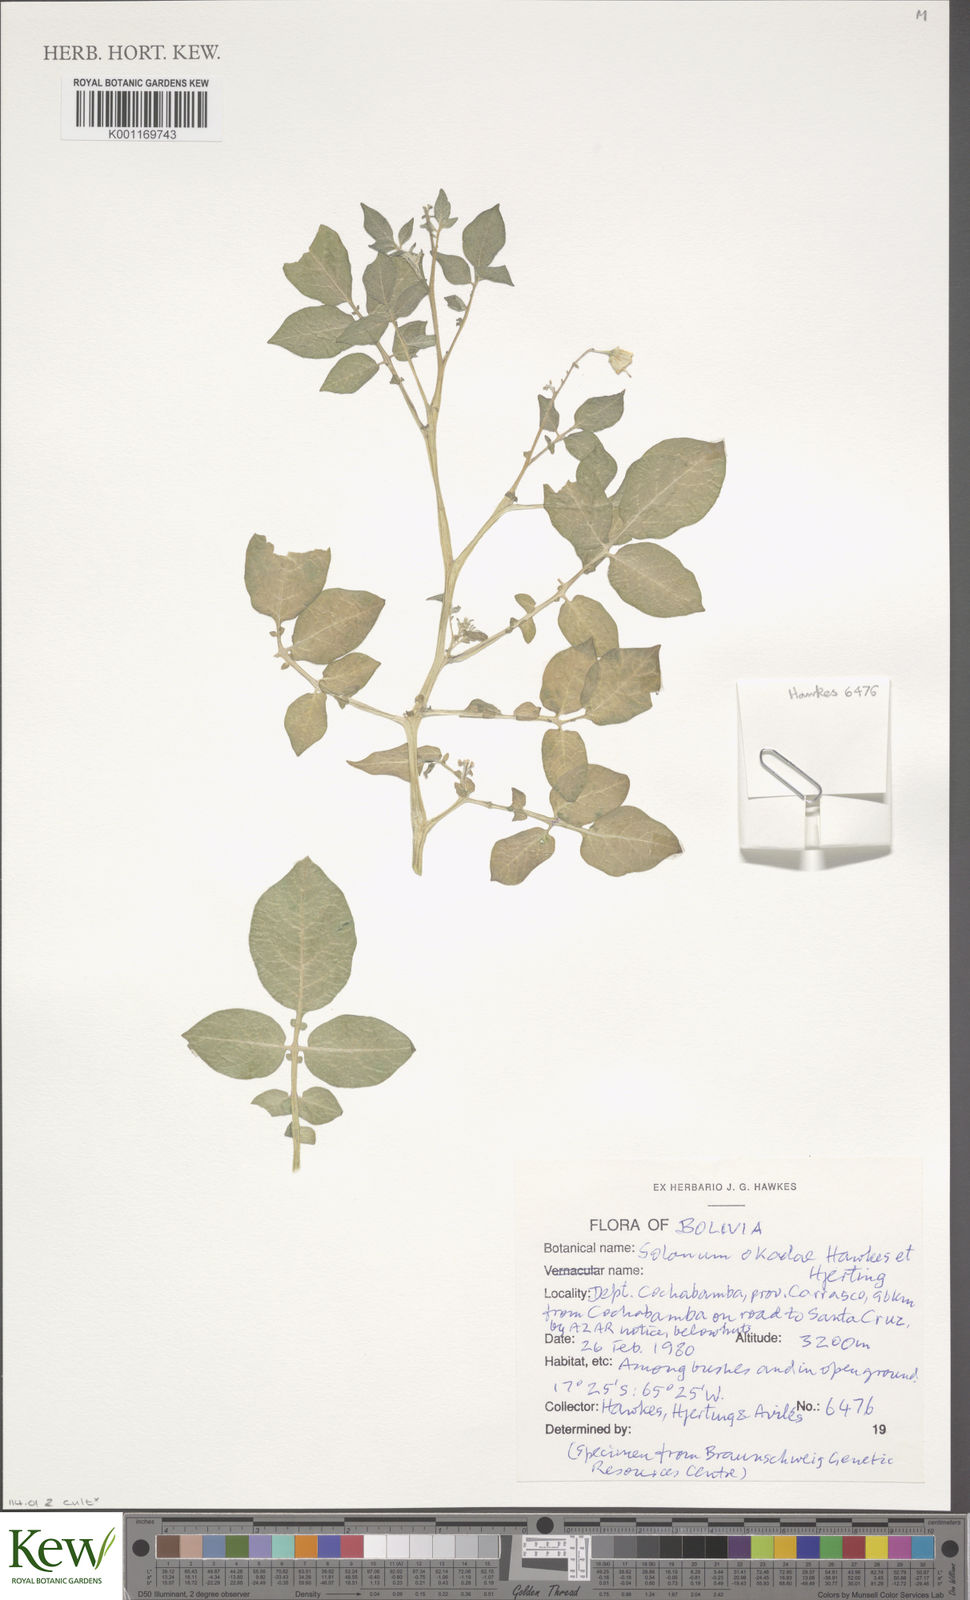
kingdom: Plantae
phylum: Tracheophyta
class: Magnoliopsida
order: Solanales
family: Solanaceae
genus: Solanum
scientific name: Solanum okadae
